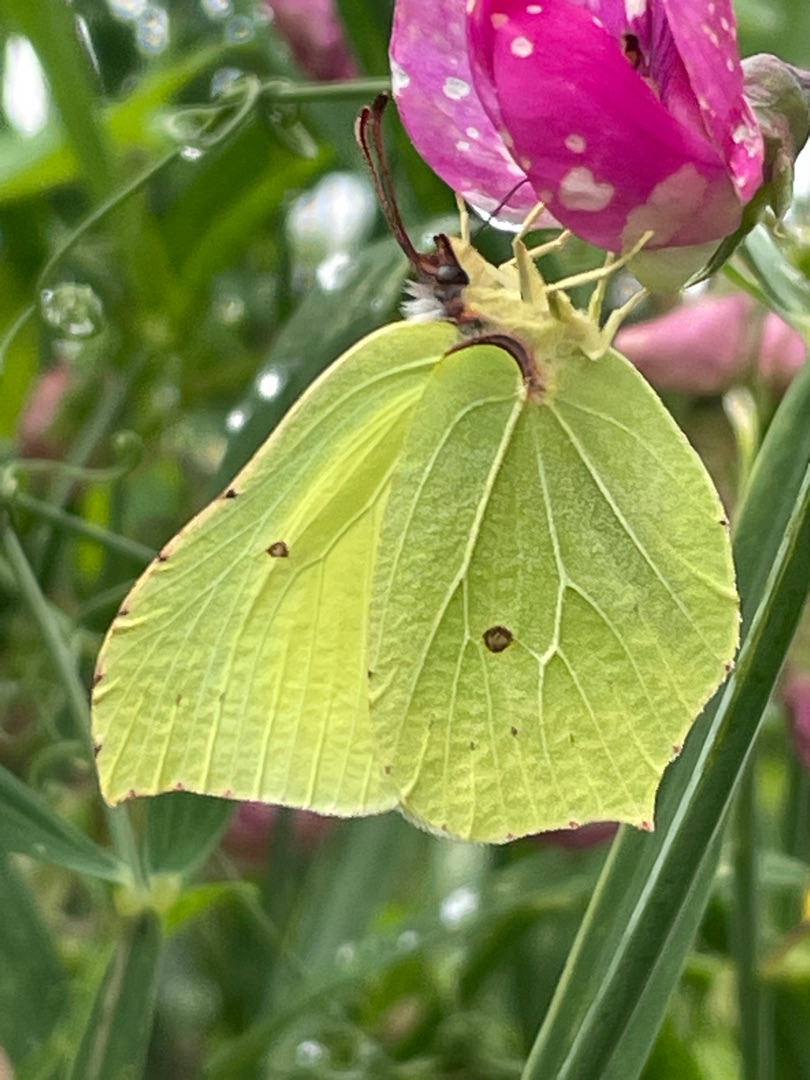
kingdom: Animalia
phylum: Arthropoda
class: Insecta
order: Lepidoptera
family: Pieridae
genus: Gonepteryx
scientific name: Gonepteryx rhamni
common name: Citronsommerfugl
